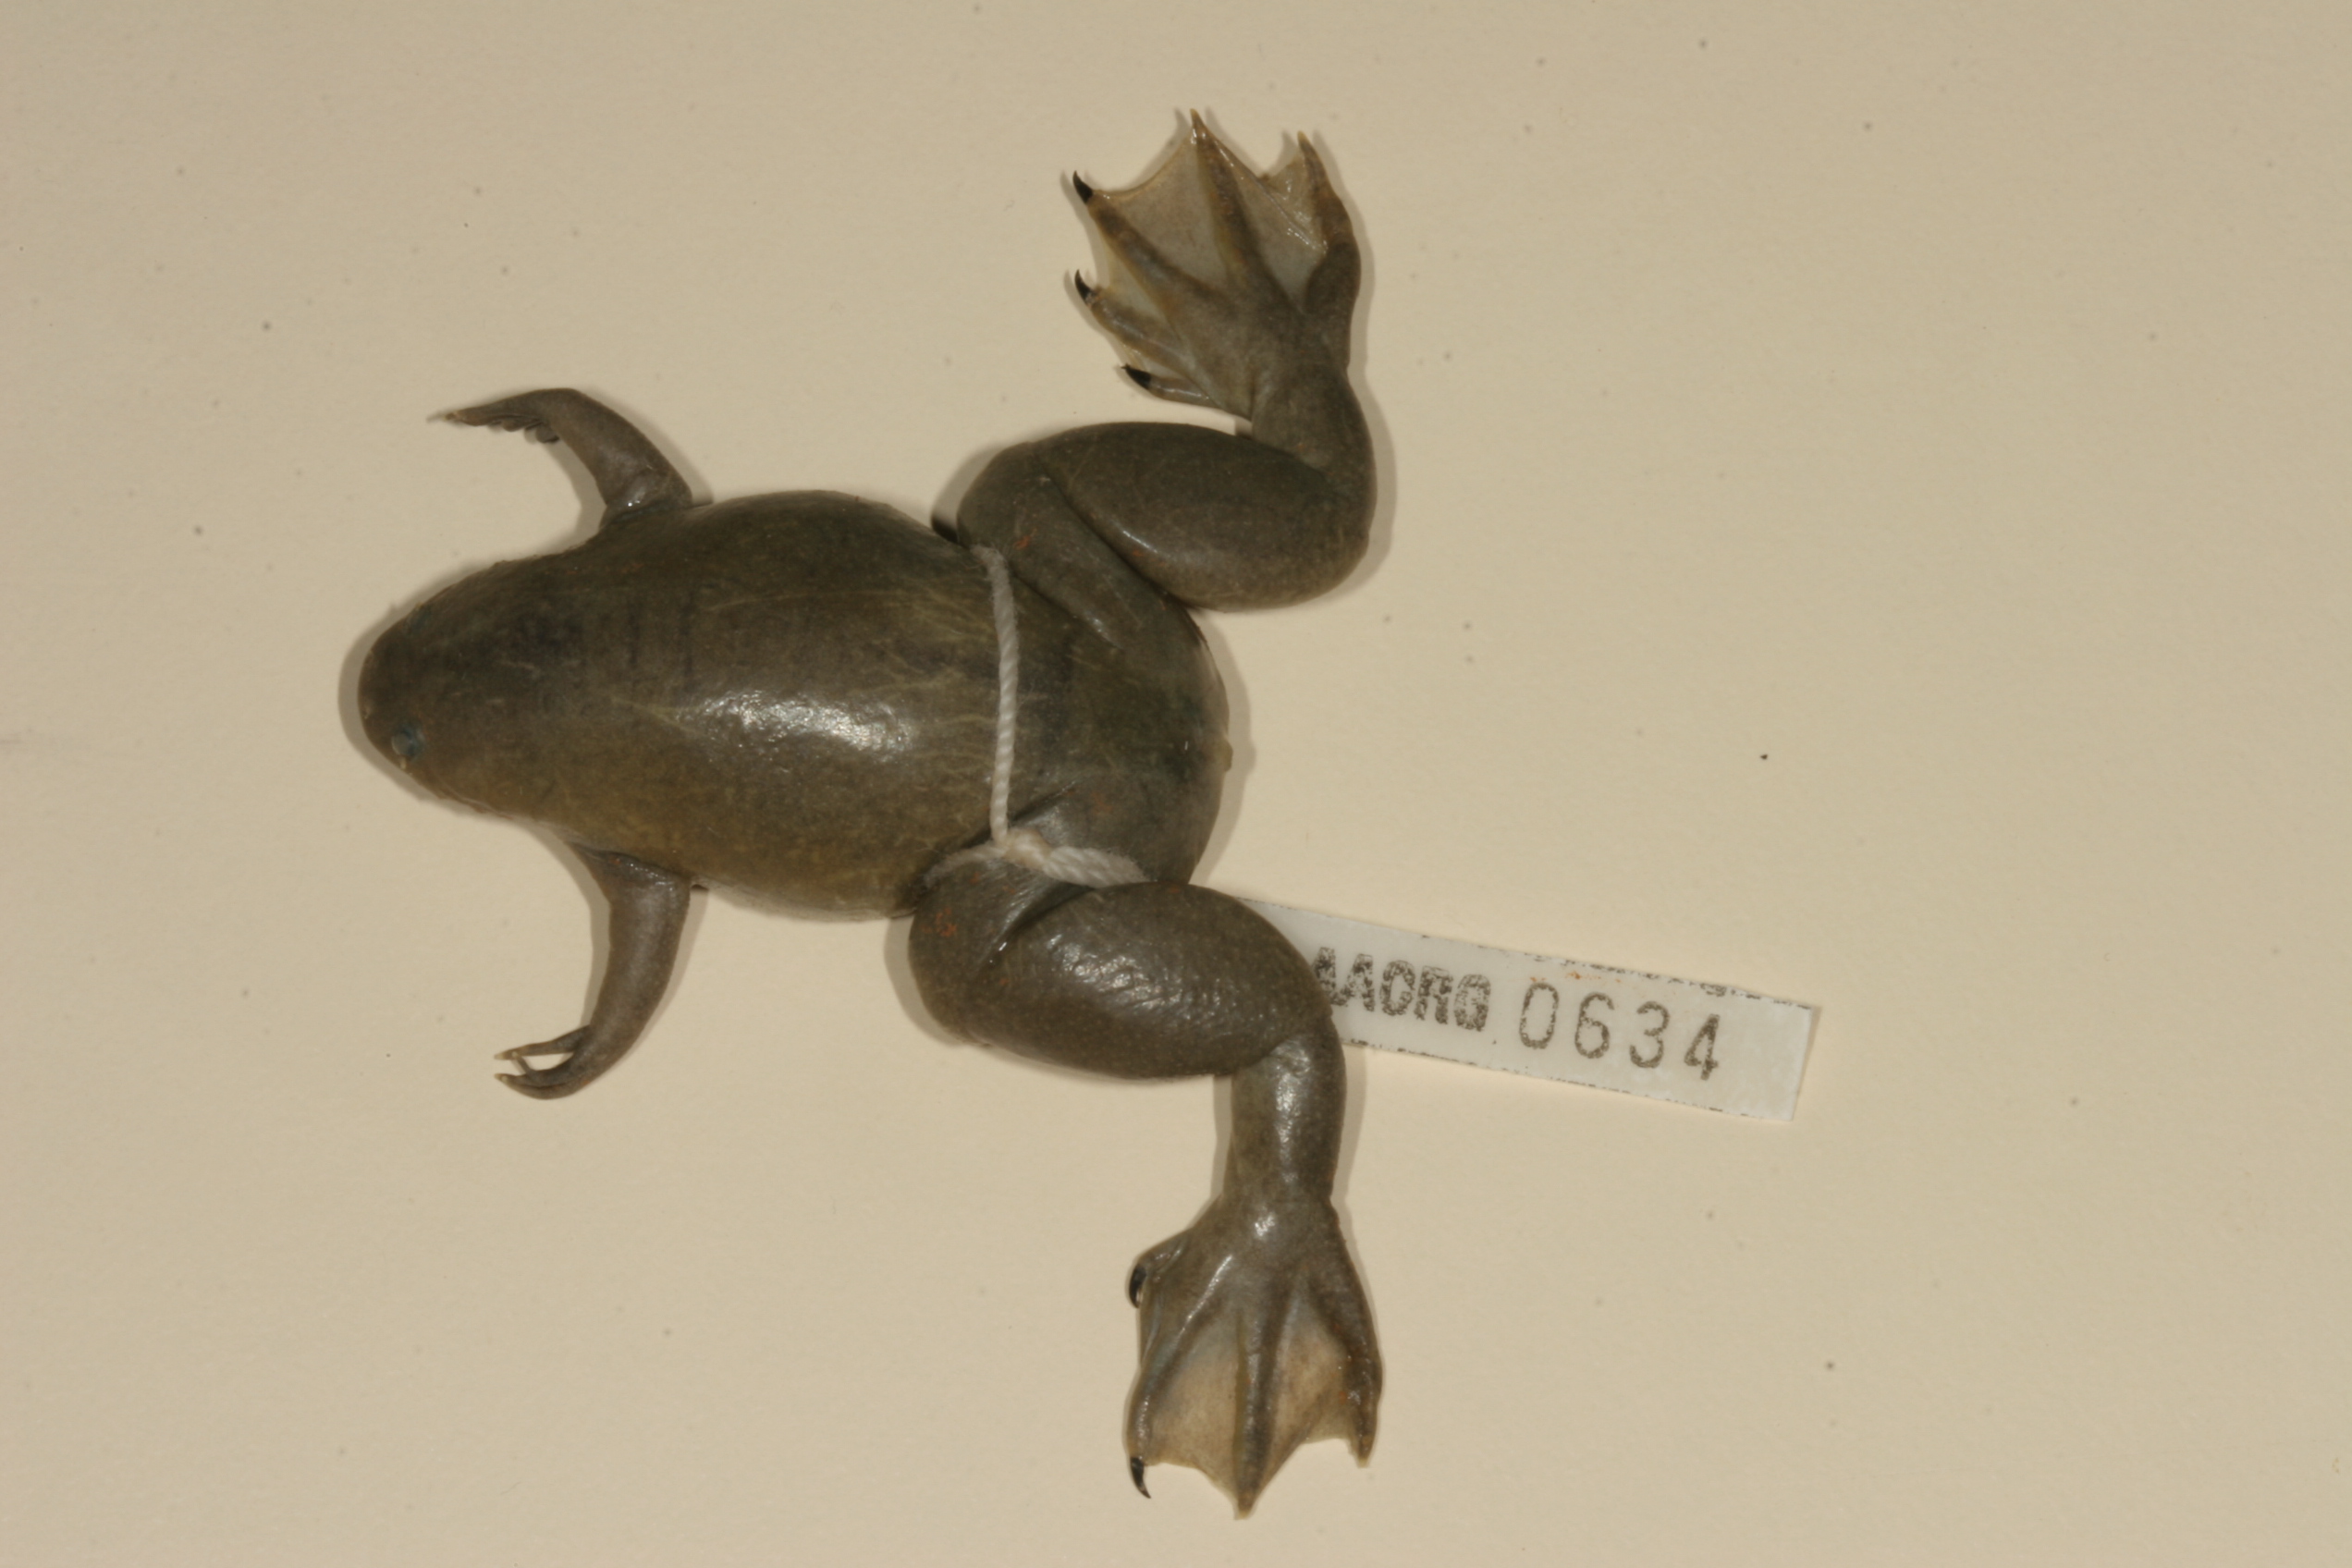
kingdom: Animalia
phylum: Chordata
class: Amphibia
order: Anura
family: Pipidae
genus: Xenopus
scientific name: Xenopus tropicalis
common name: Forest clawed frog
